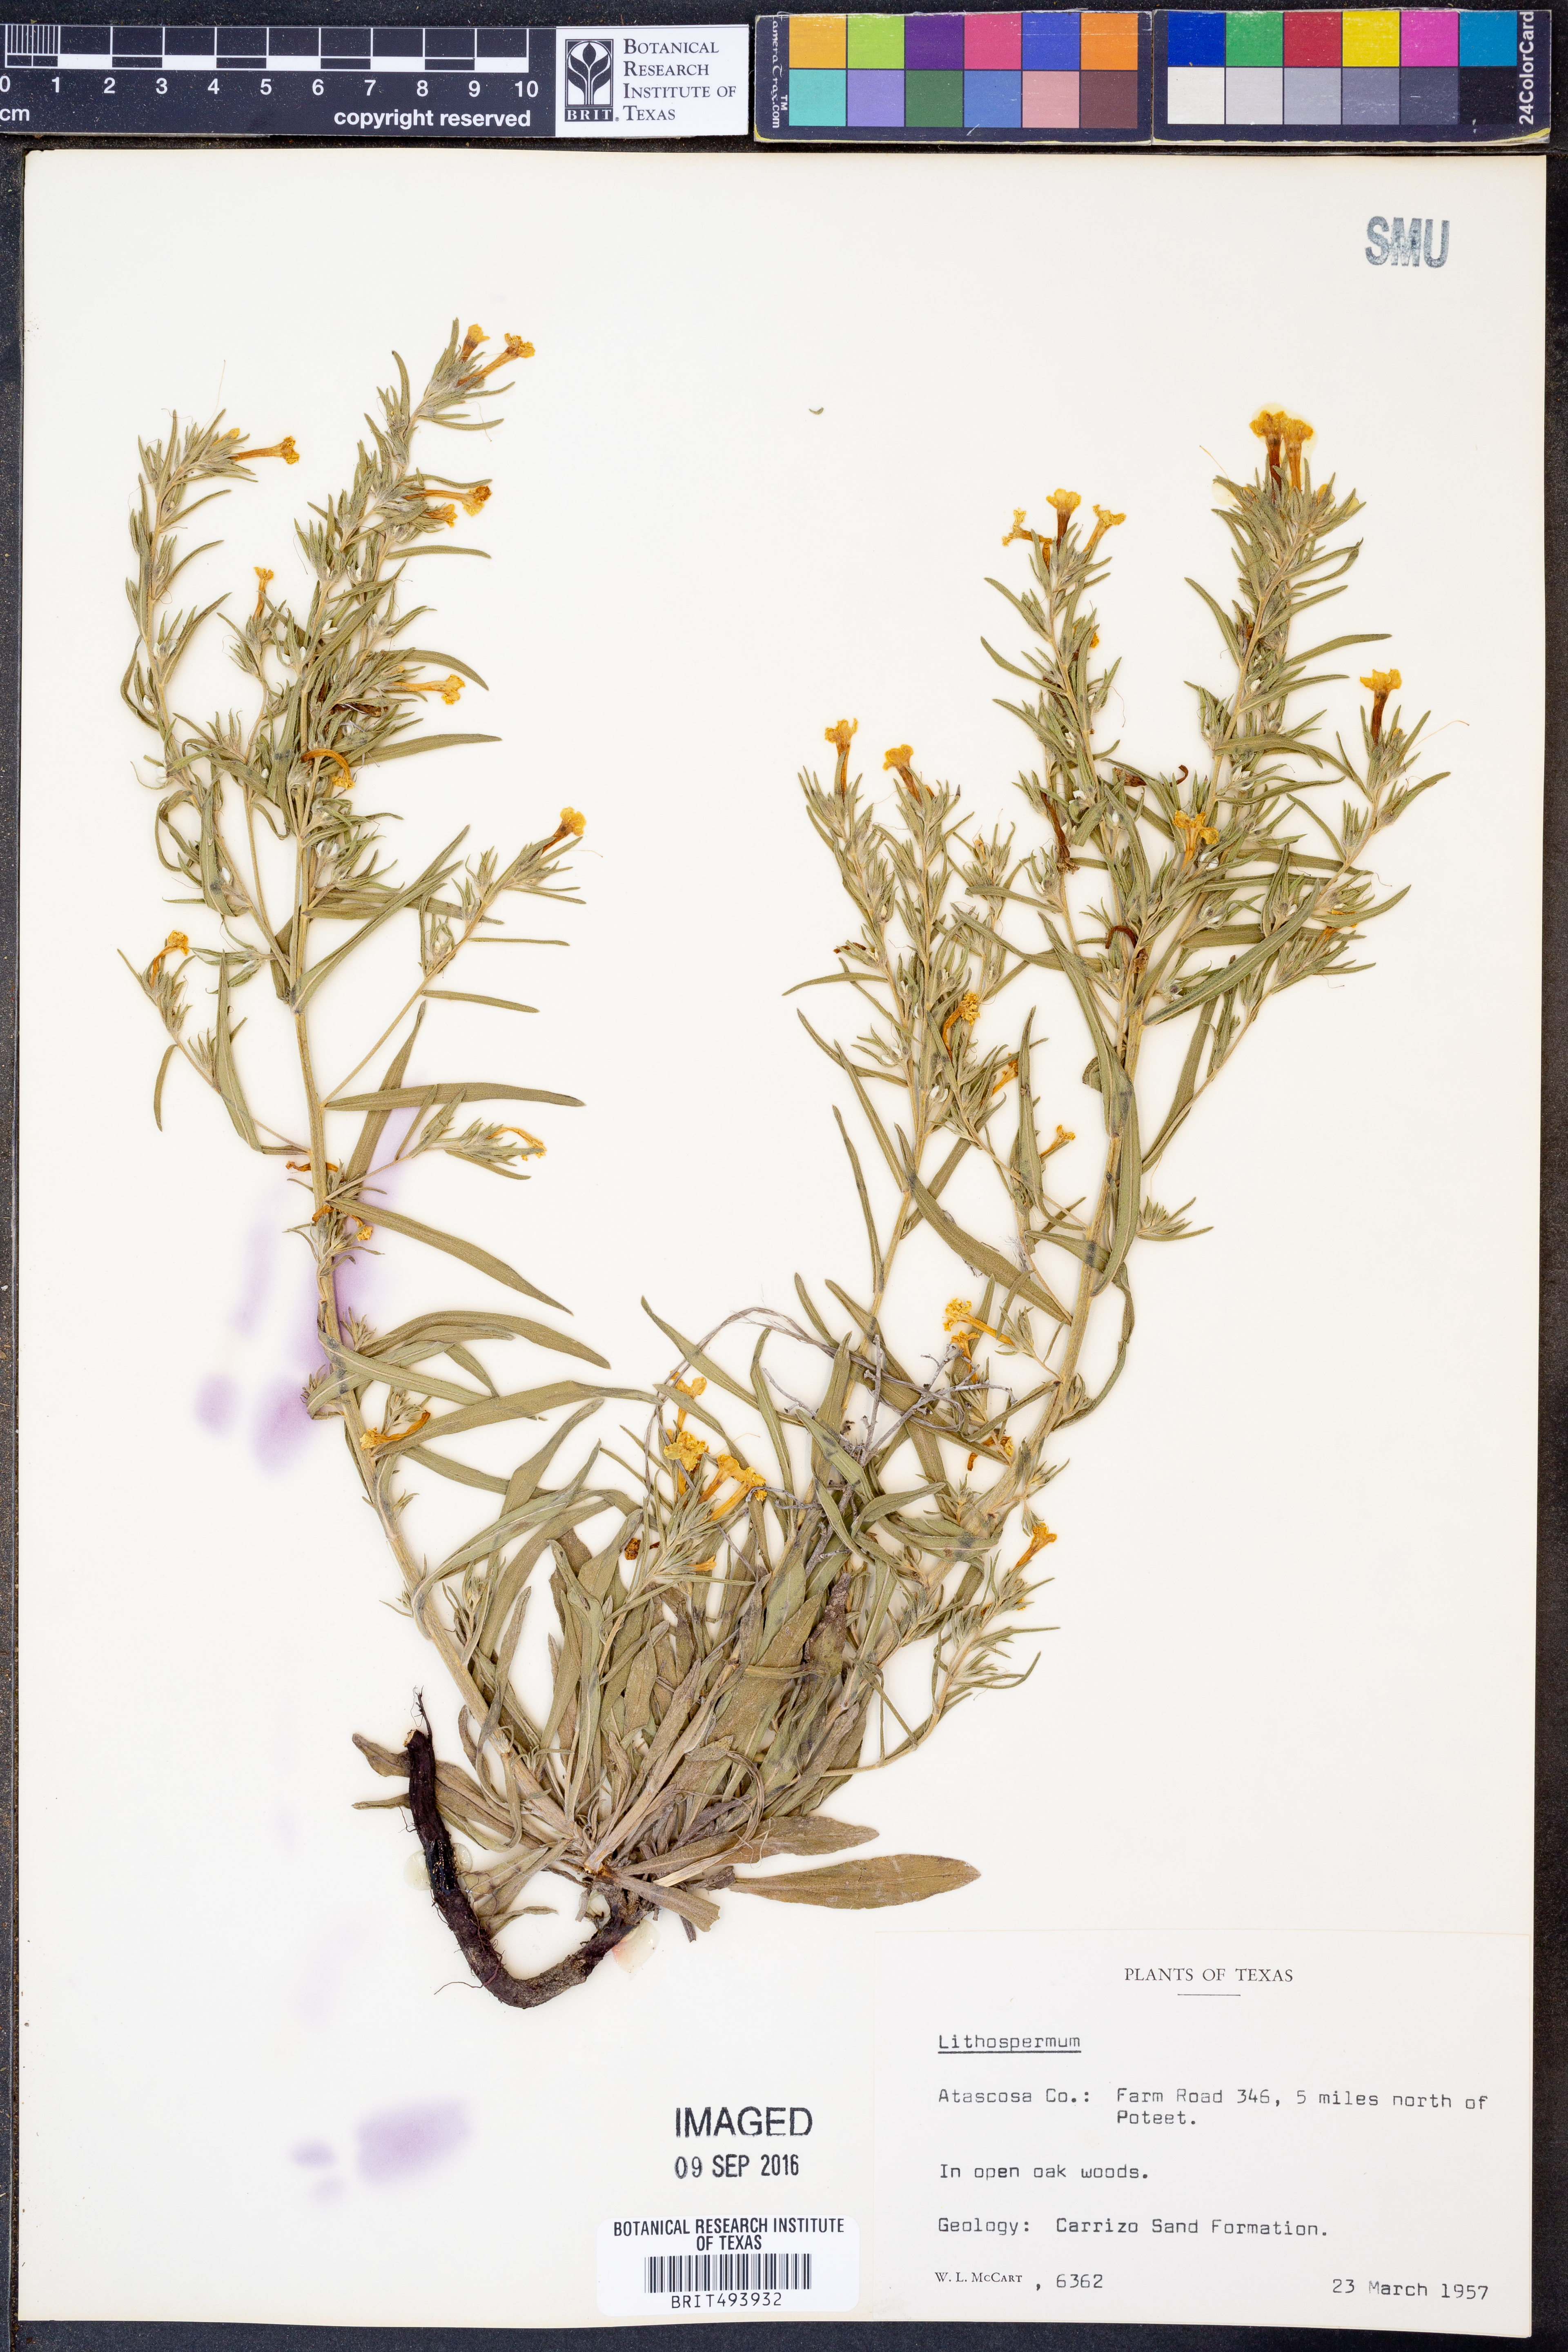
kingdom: Plantae
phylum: Tracheophyta
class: Magnoliopsida
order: Boraginales
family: Boraginaceae
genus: Lithospermum
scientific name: Lithospermum
